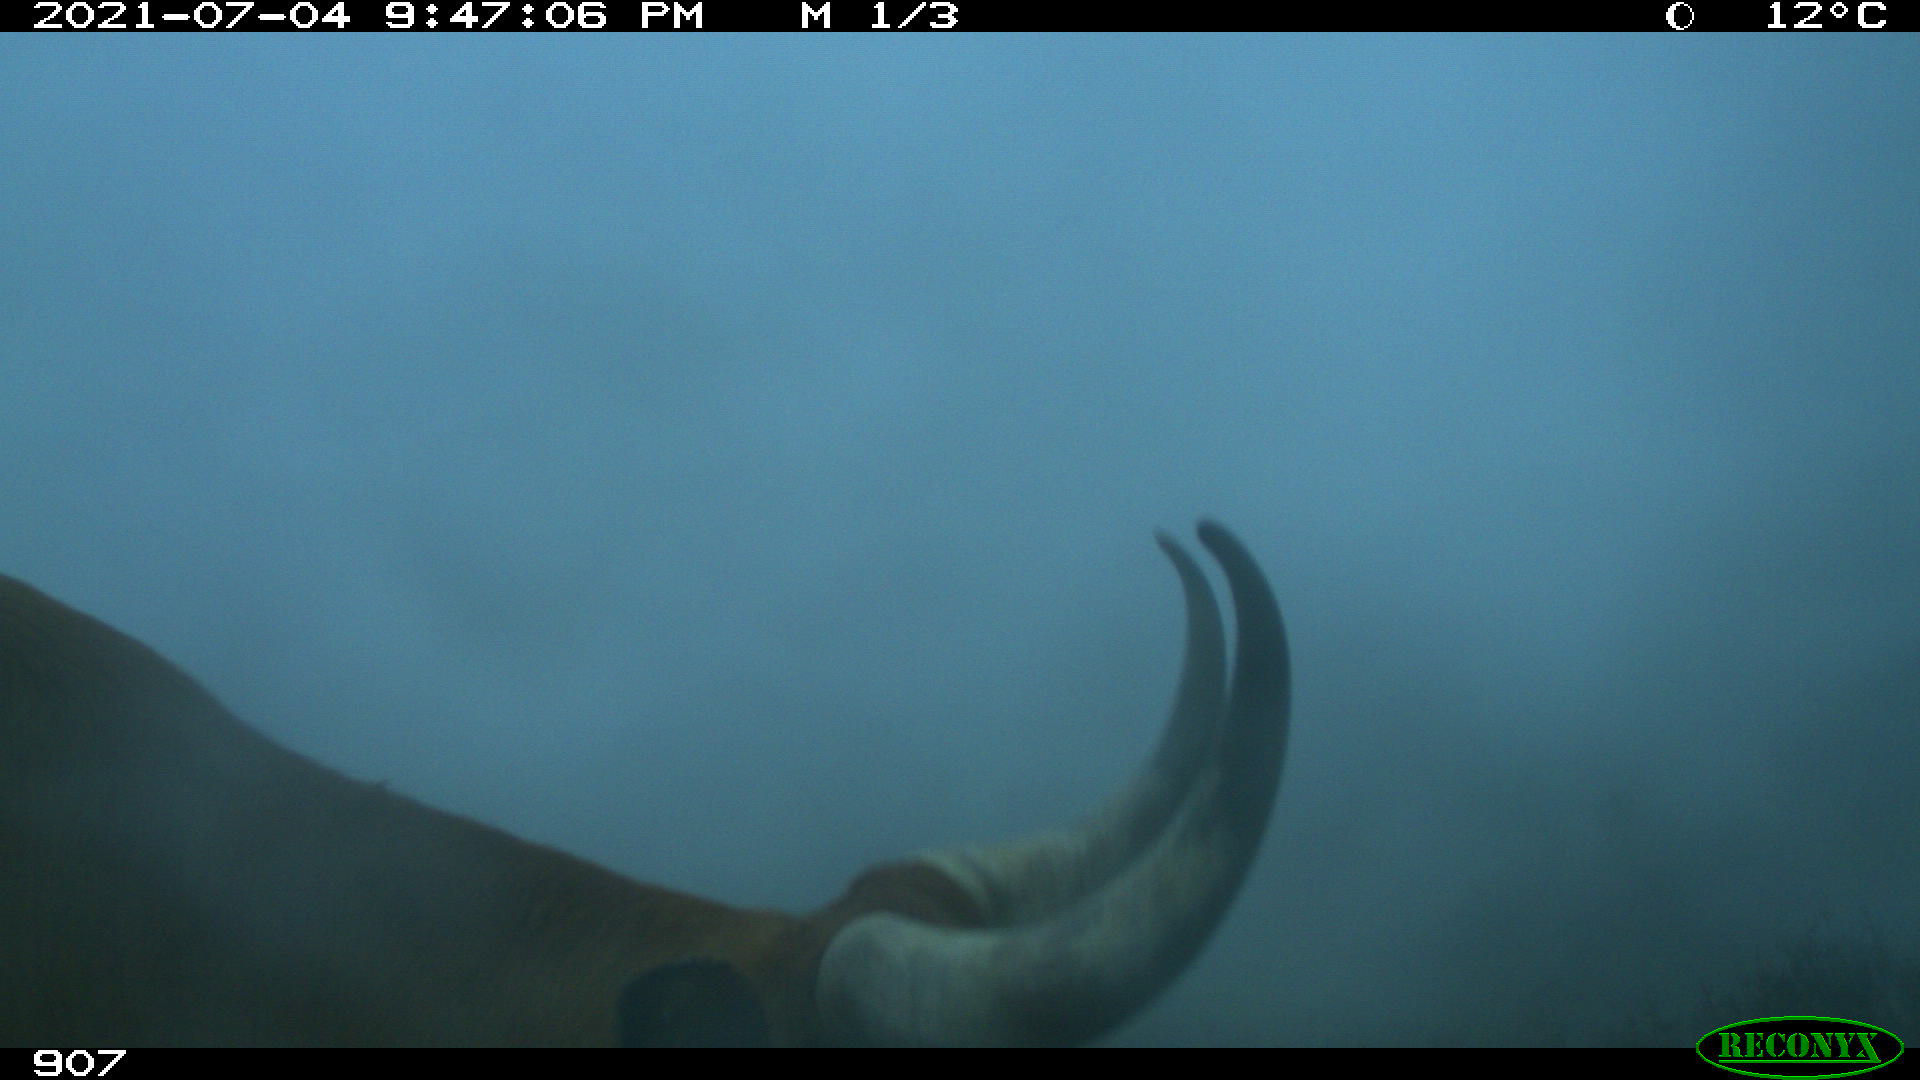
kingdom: Animalia
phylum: Chordata
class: Mammalia
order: Artiodactyla
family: Bovidae
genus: Bos
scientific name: Bos taurus
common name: Domesticated cattle
